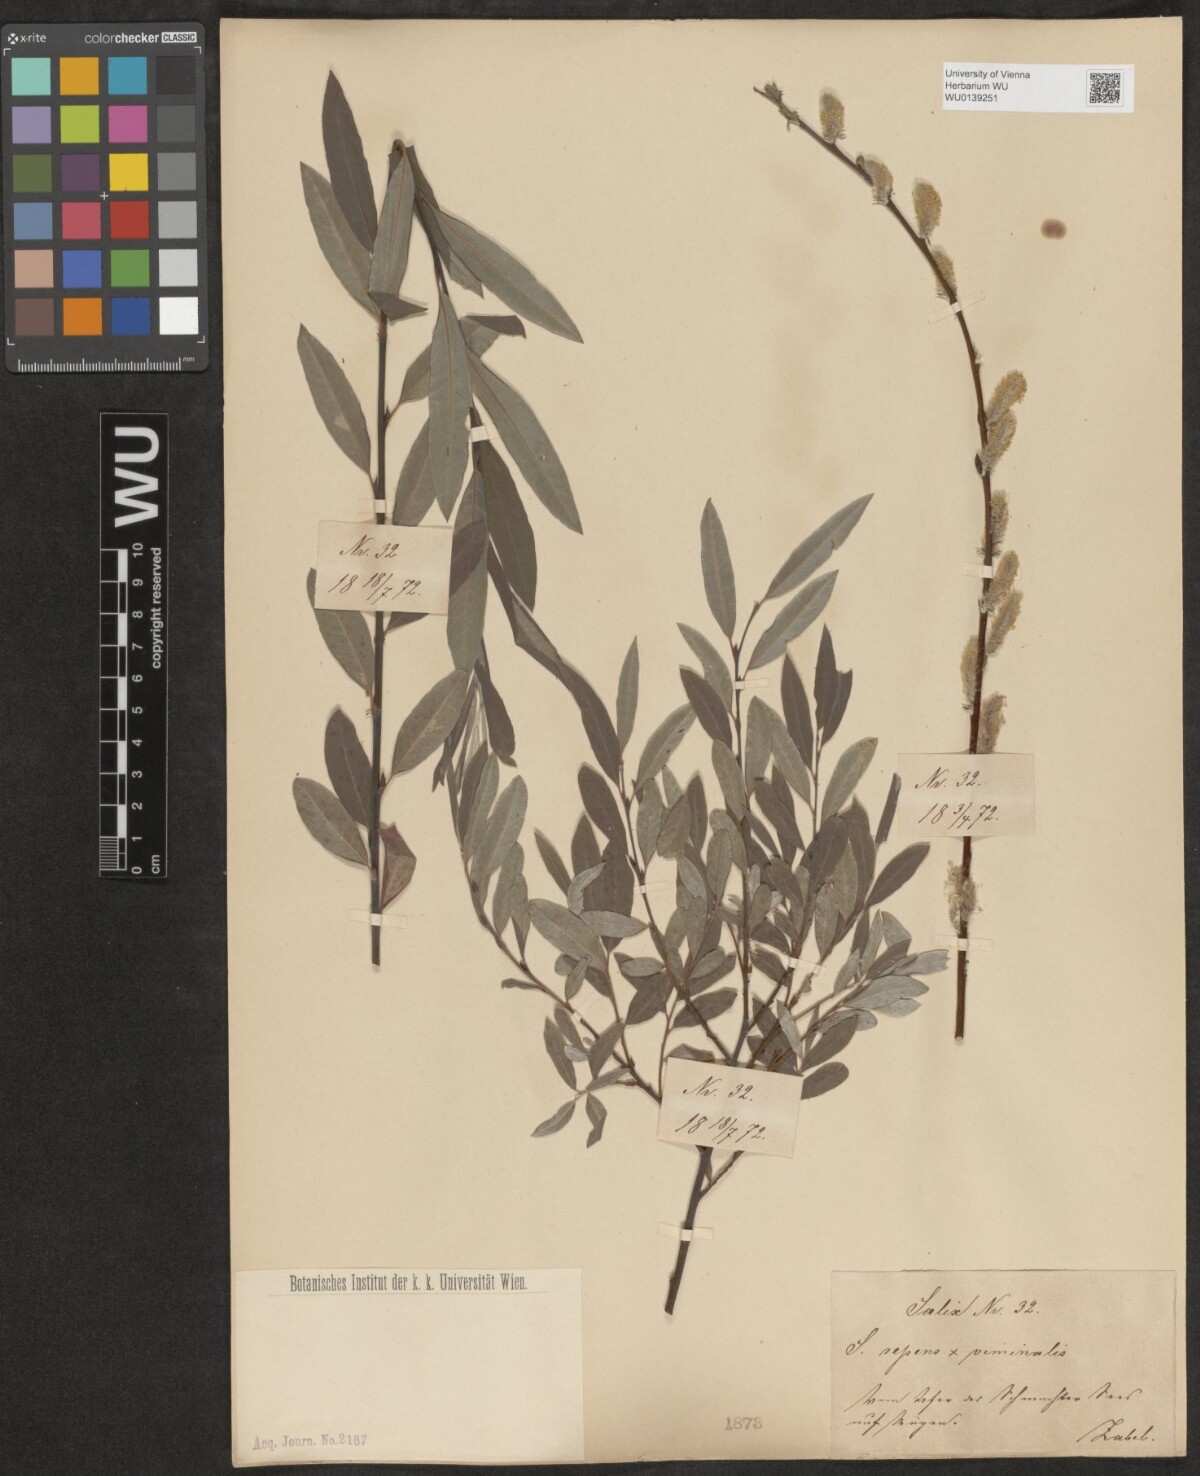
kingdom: Plantae
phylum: Tracheophyta
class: Magnoliopsida
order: Malpighiales
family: Salicaceae
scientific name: Salicaceae
